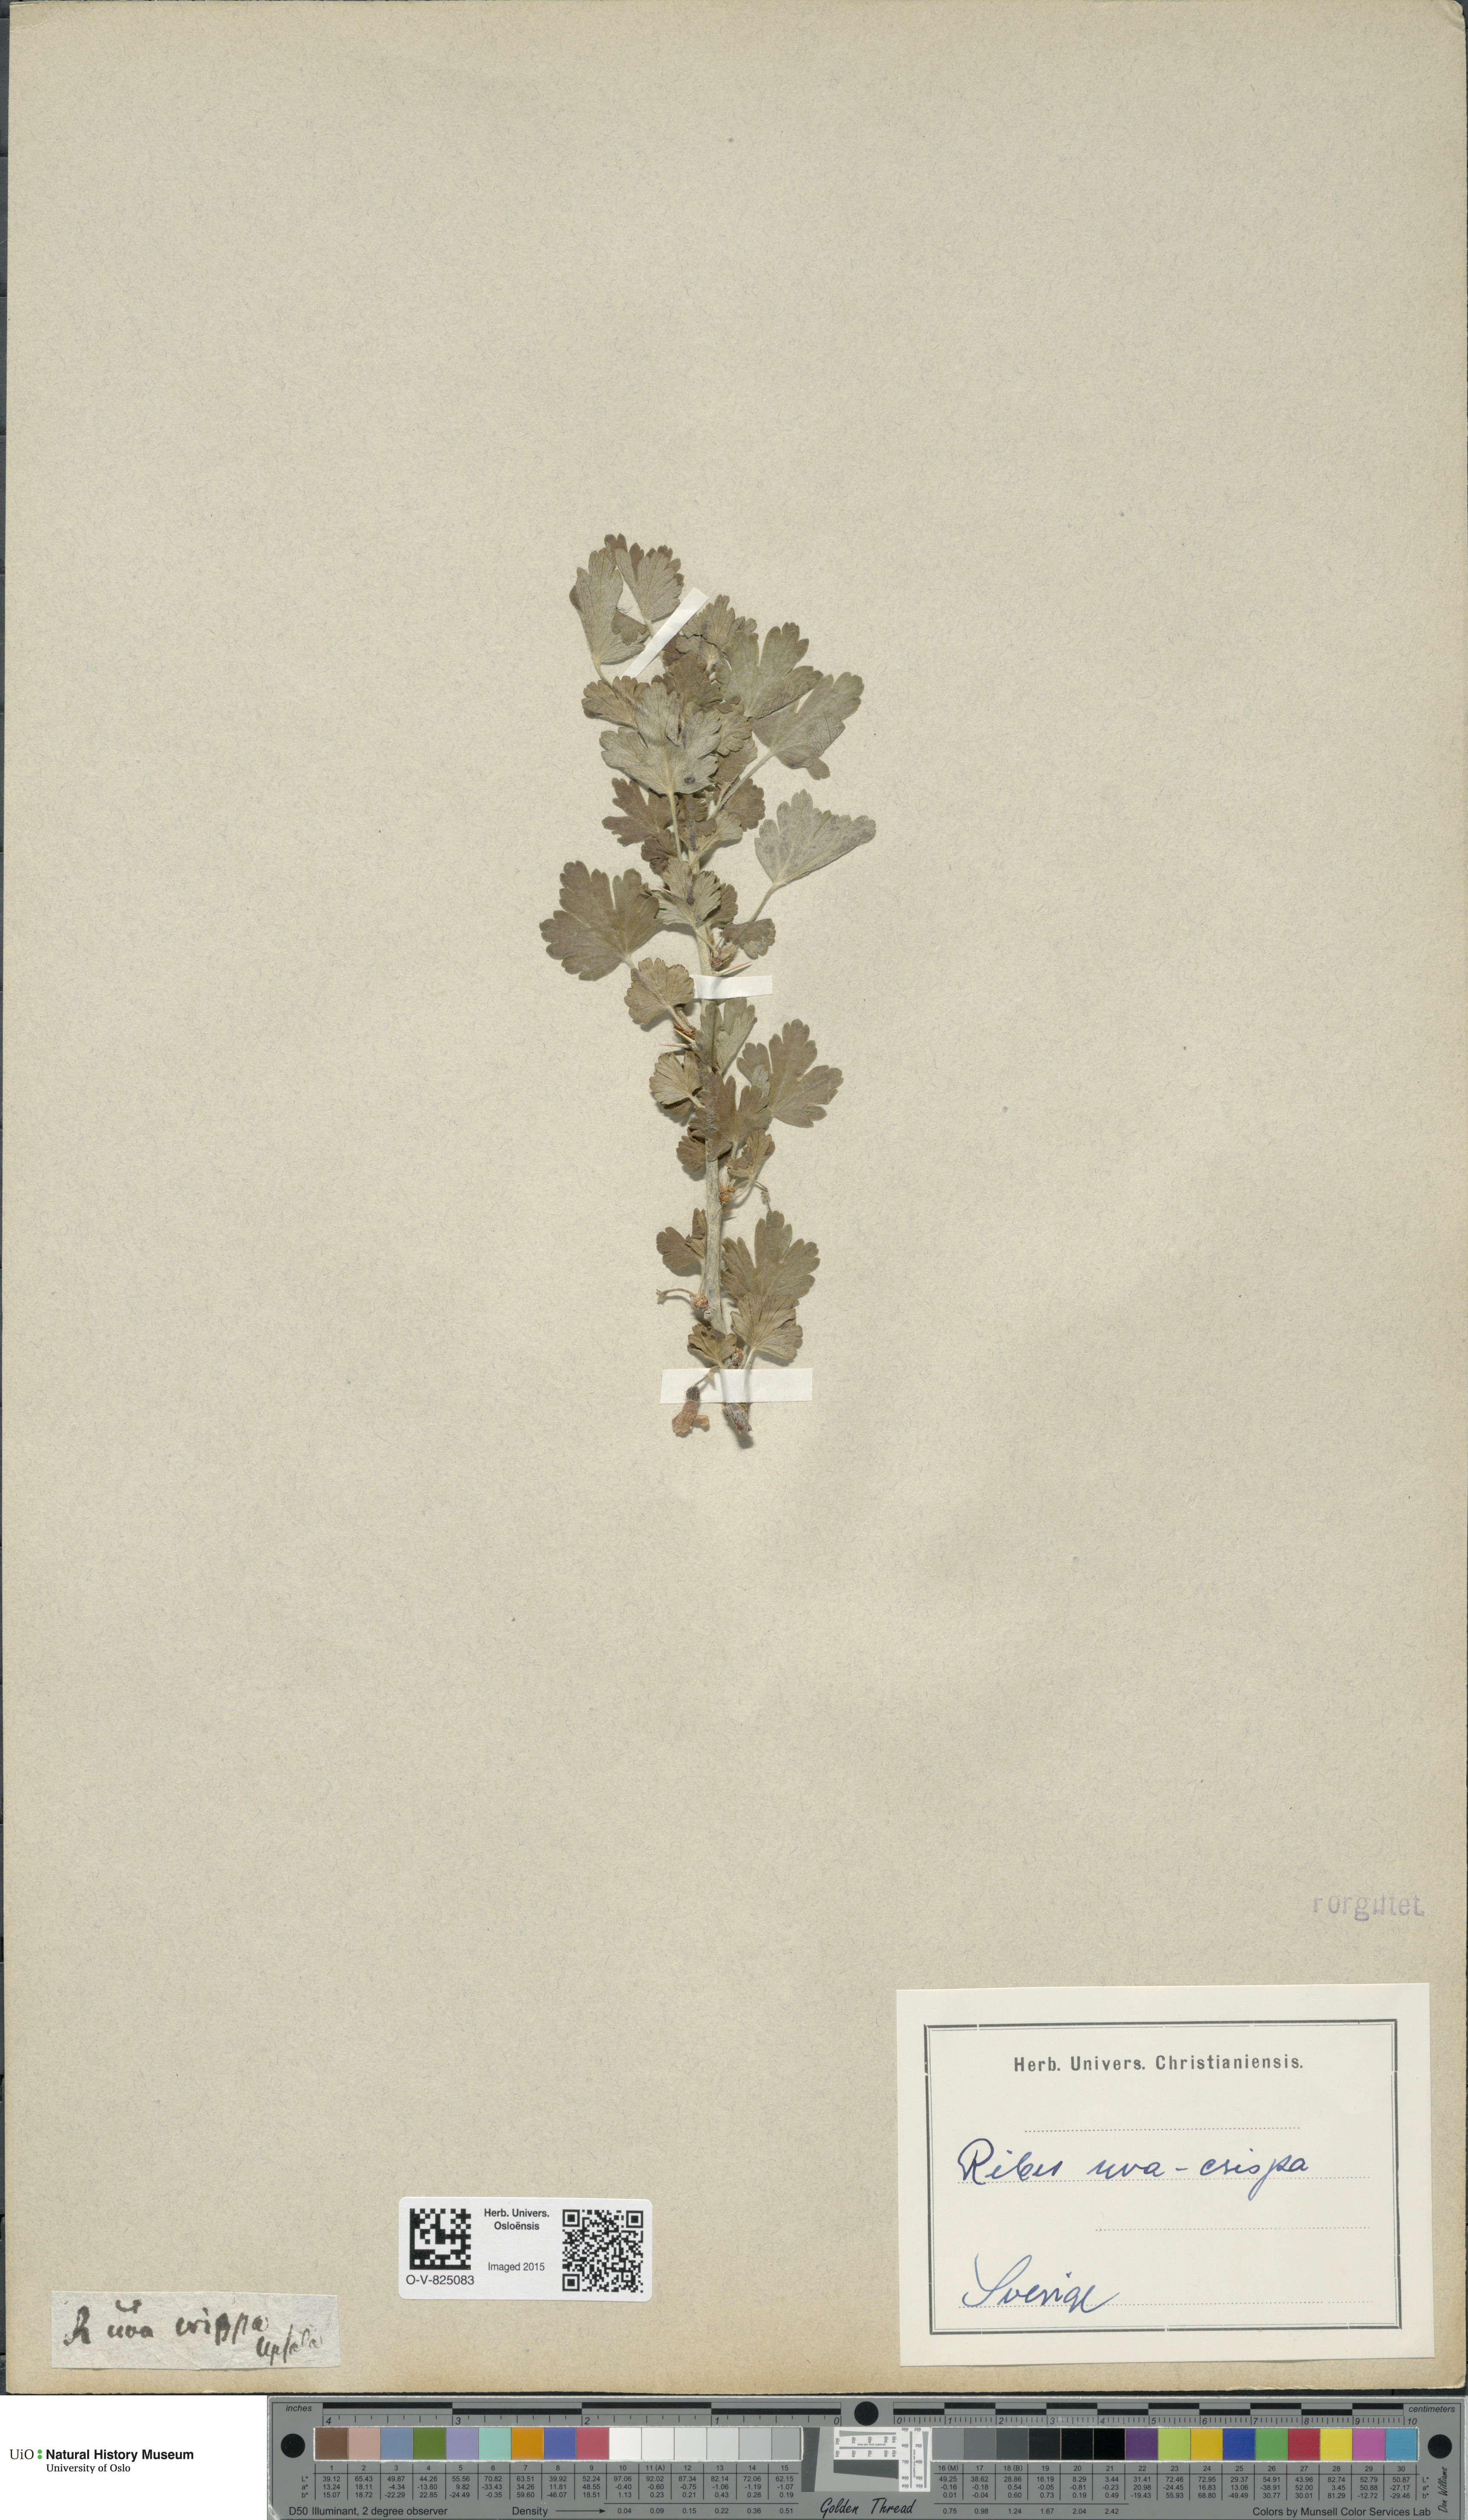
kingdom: Plantae
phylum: Tracheophyta
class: Magnoliopsida
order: Saxifragales
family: Grossulariaceae
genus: Ribes
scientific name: Ribes uva-crispa
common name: Gooseberry
